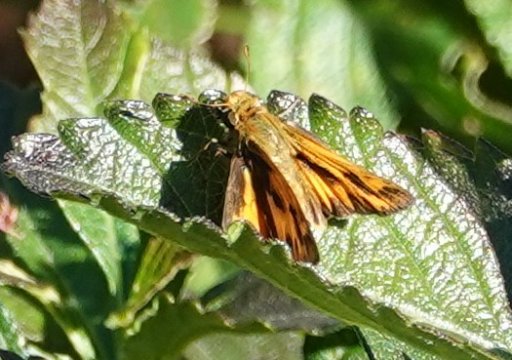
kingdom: Animalia
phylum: Arthropoda
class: Insecta
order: Lepidoptera
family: Hesperiidae
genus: Hylephila
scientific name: Hylephila phyleus
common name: Fiery Skipper
